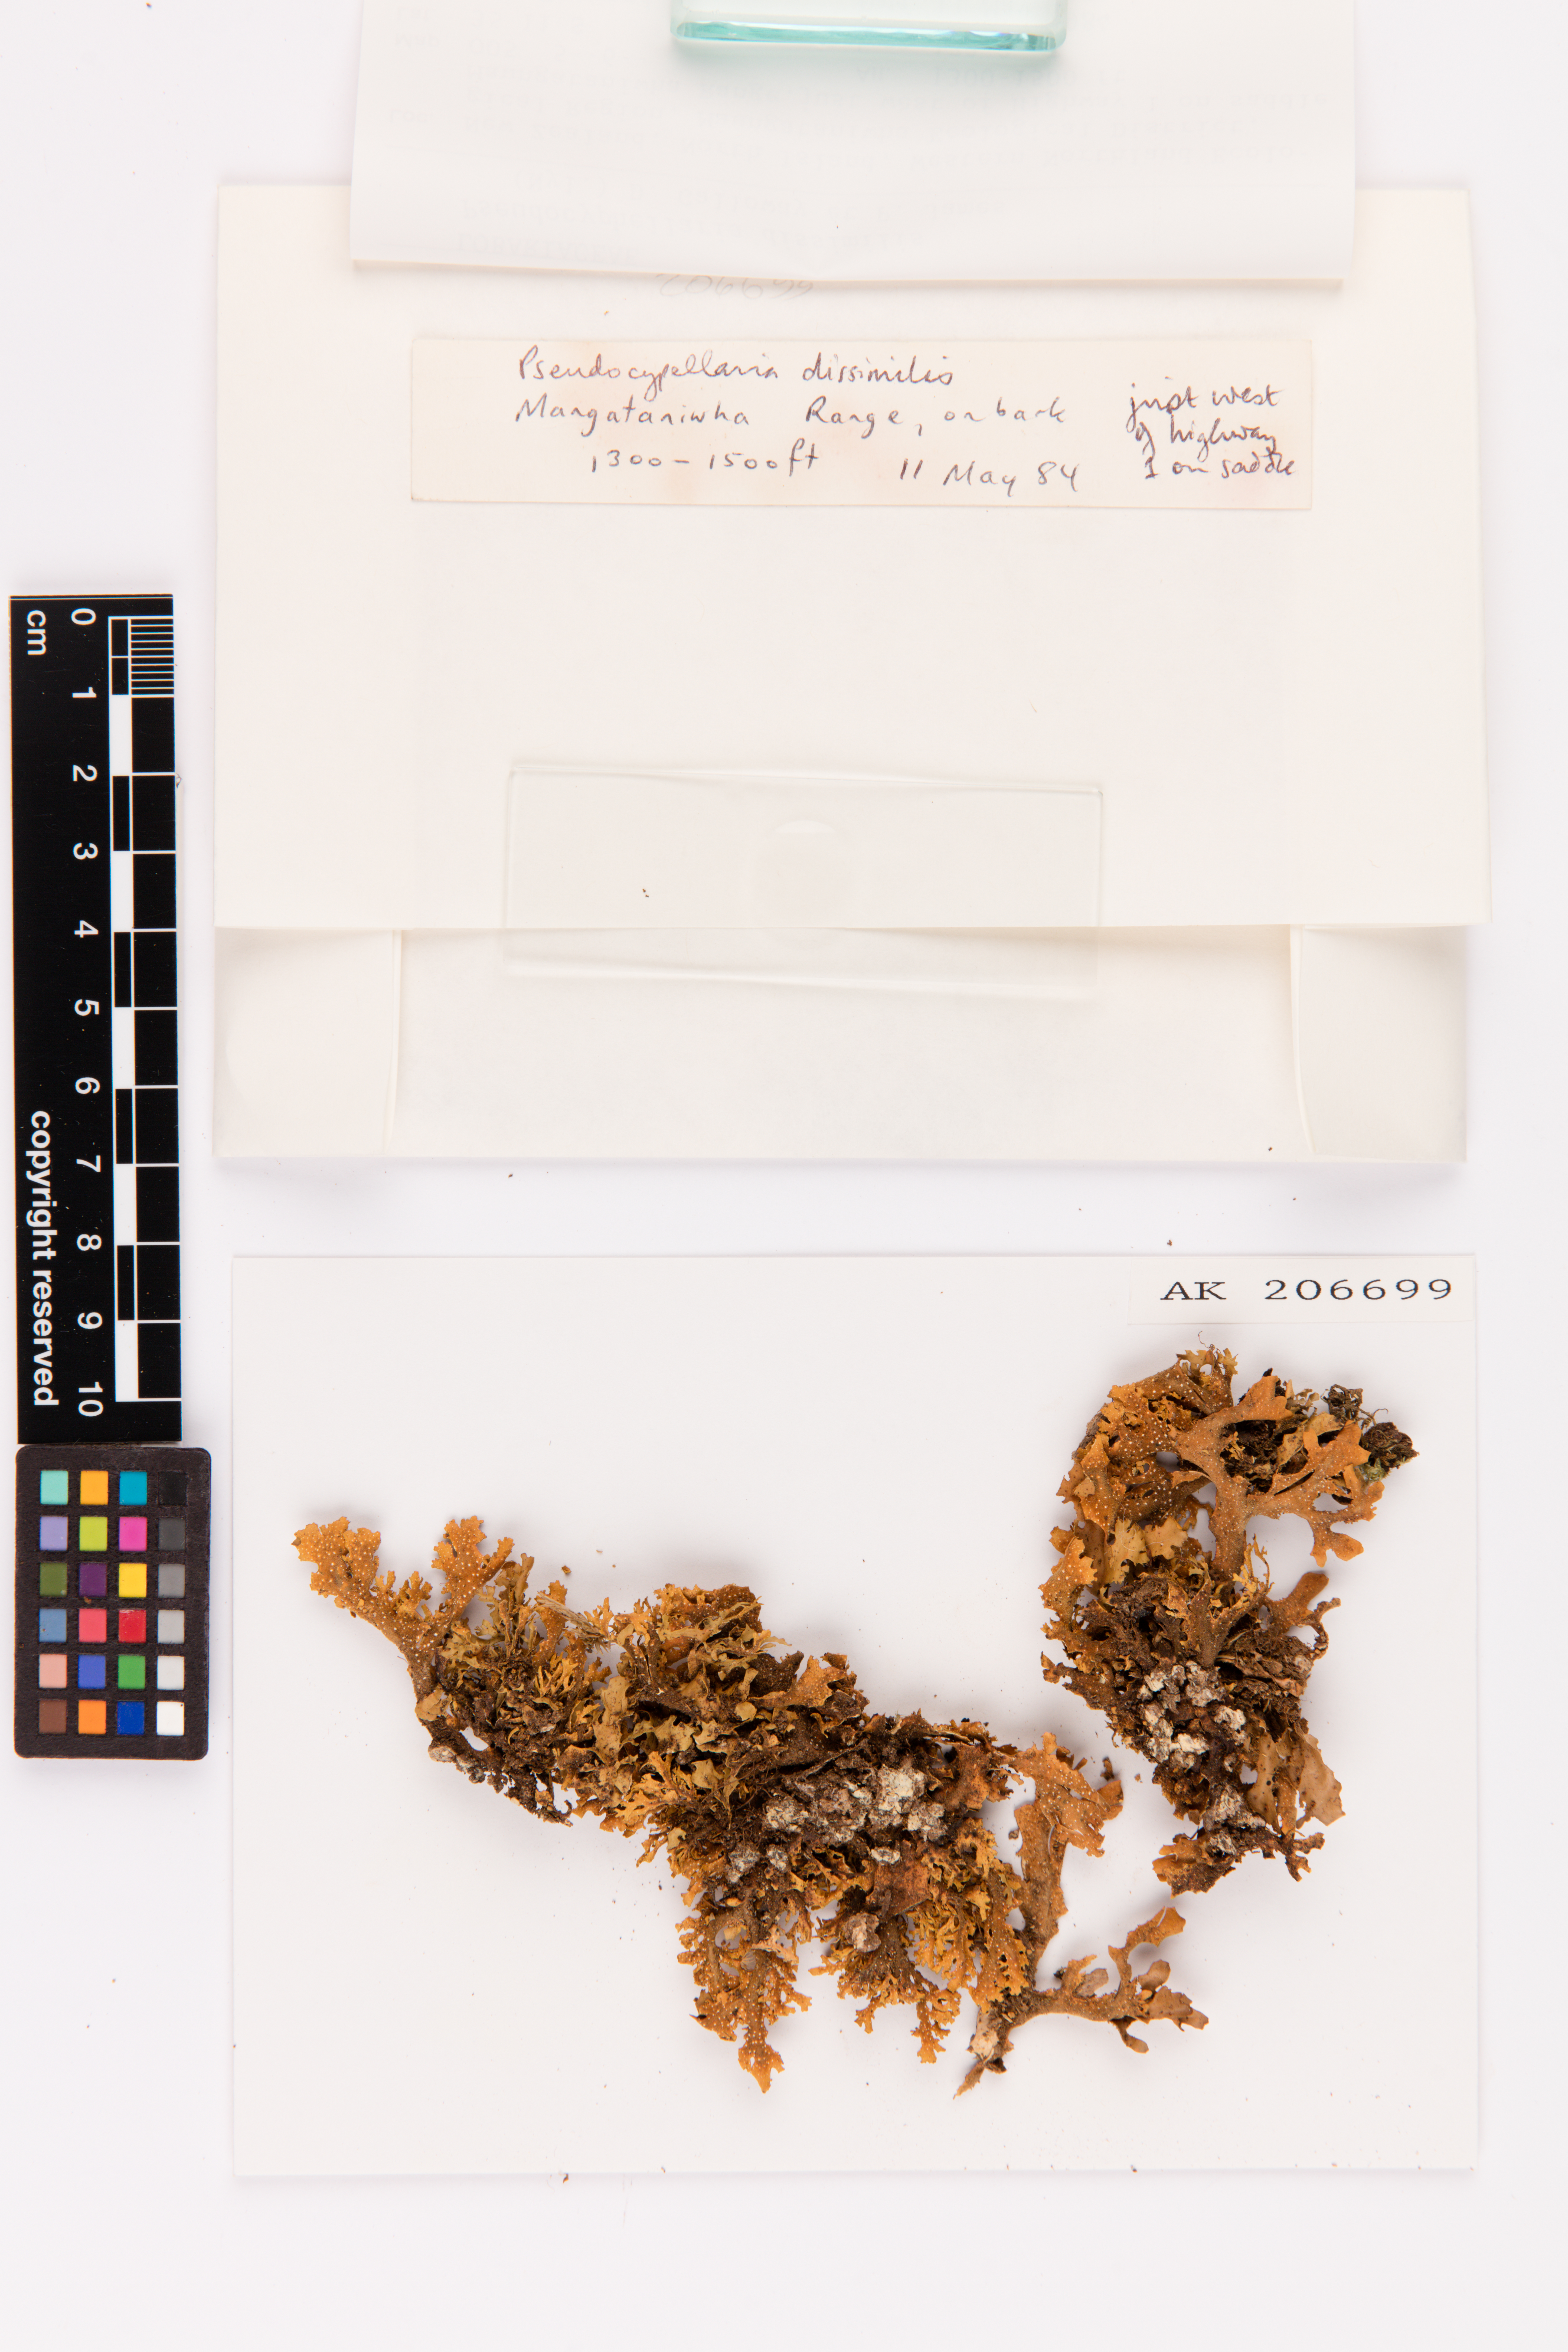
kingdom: Fungi
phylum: Ascomycota
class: Lecanoromycetes
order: Peltigerales
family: Lobariaceae
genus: Pseudocyphellaria
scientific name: Pseudocyphellaria dissimilis
